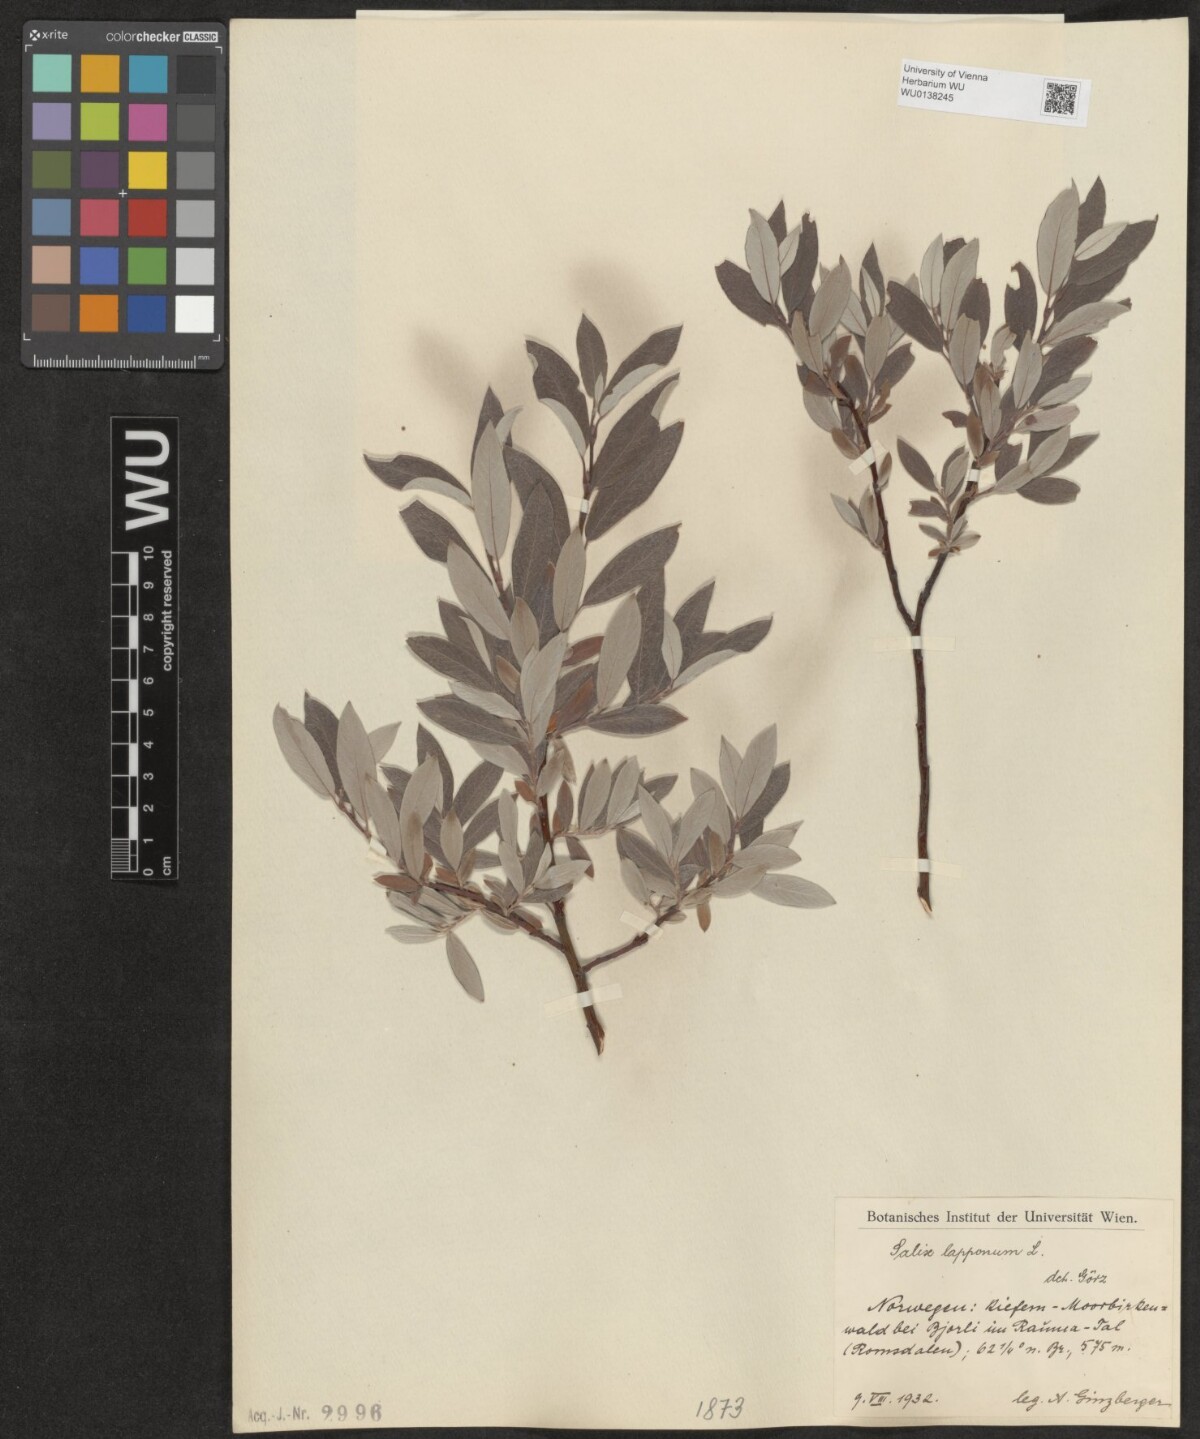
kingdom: Plantae
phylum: Tracheophyta
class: Magnoliopsida
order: Malpighiales
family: Salicaceae
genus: Salix
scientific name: Salix lapponum
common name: Downy willow
